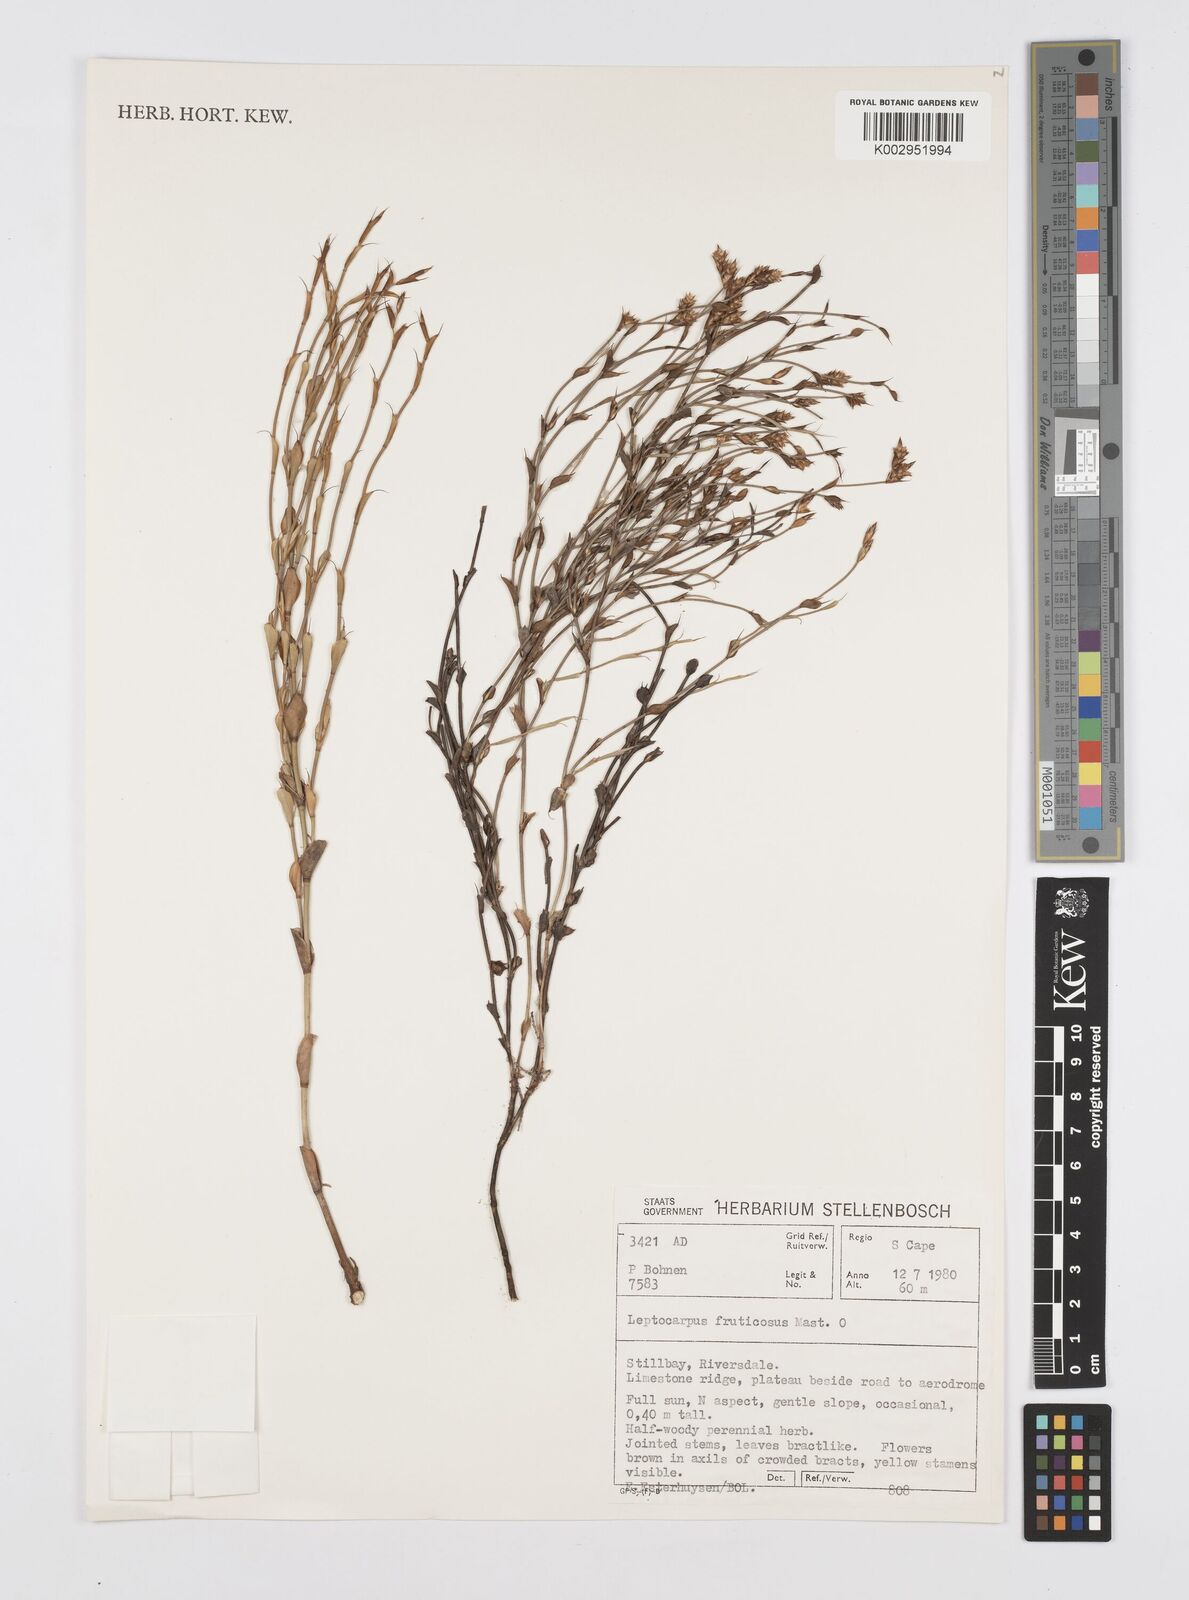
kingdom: Plantae
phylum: Tracheophyta
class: Liliopsida
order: Poales
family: Restionaceae
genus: Rhodocoma
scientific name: Rhodocoma fruticosa
